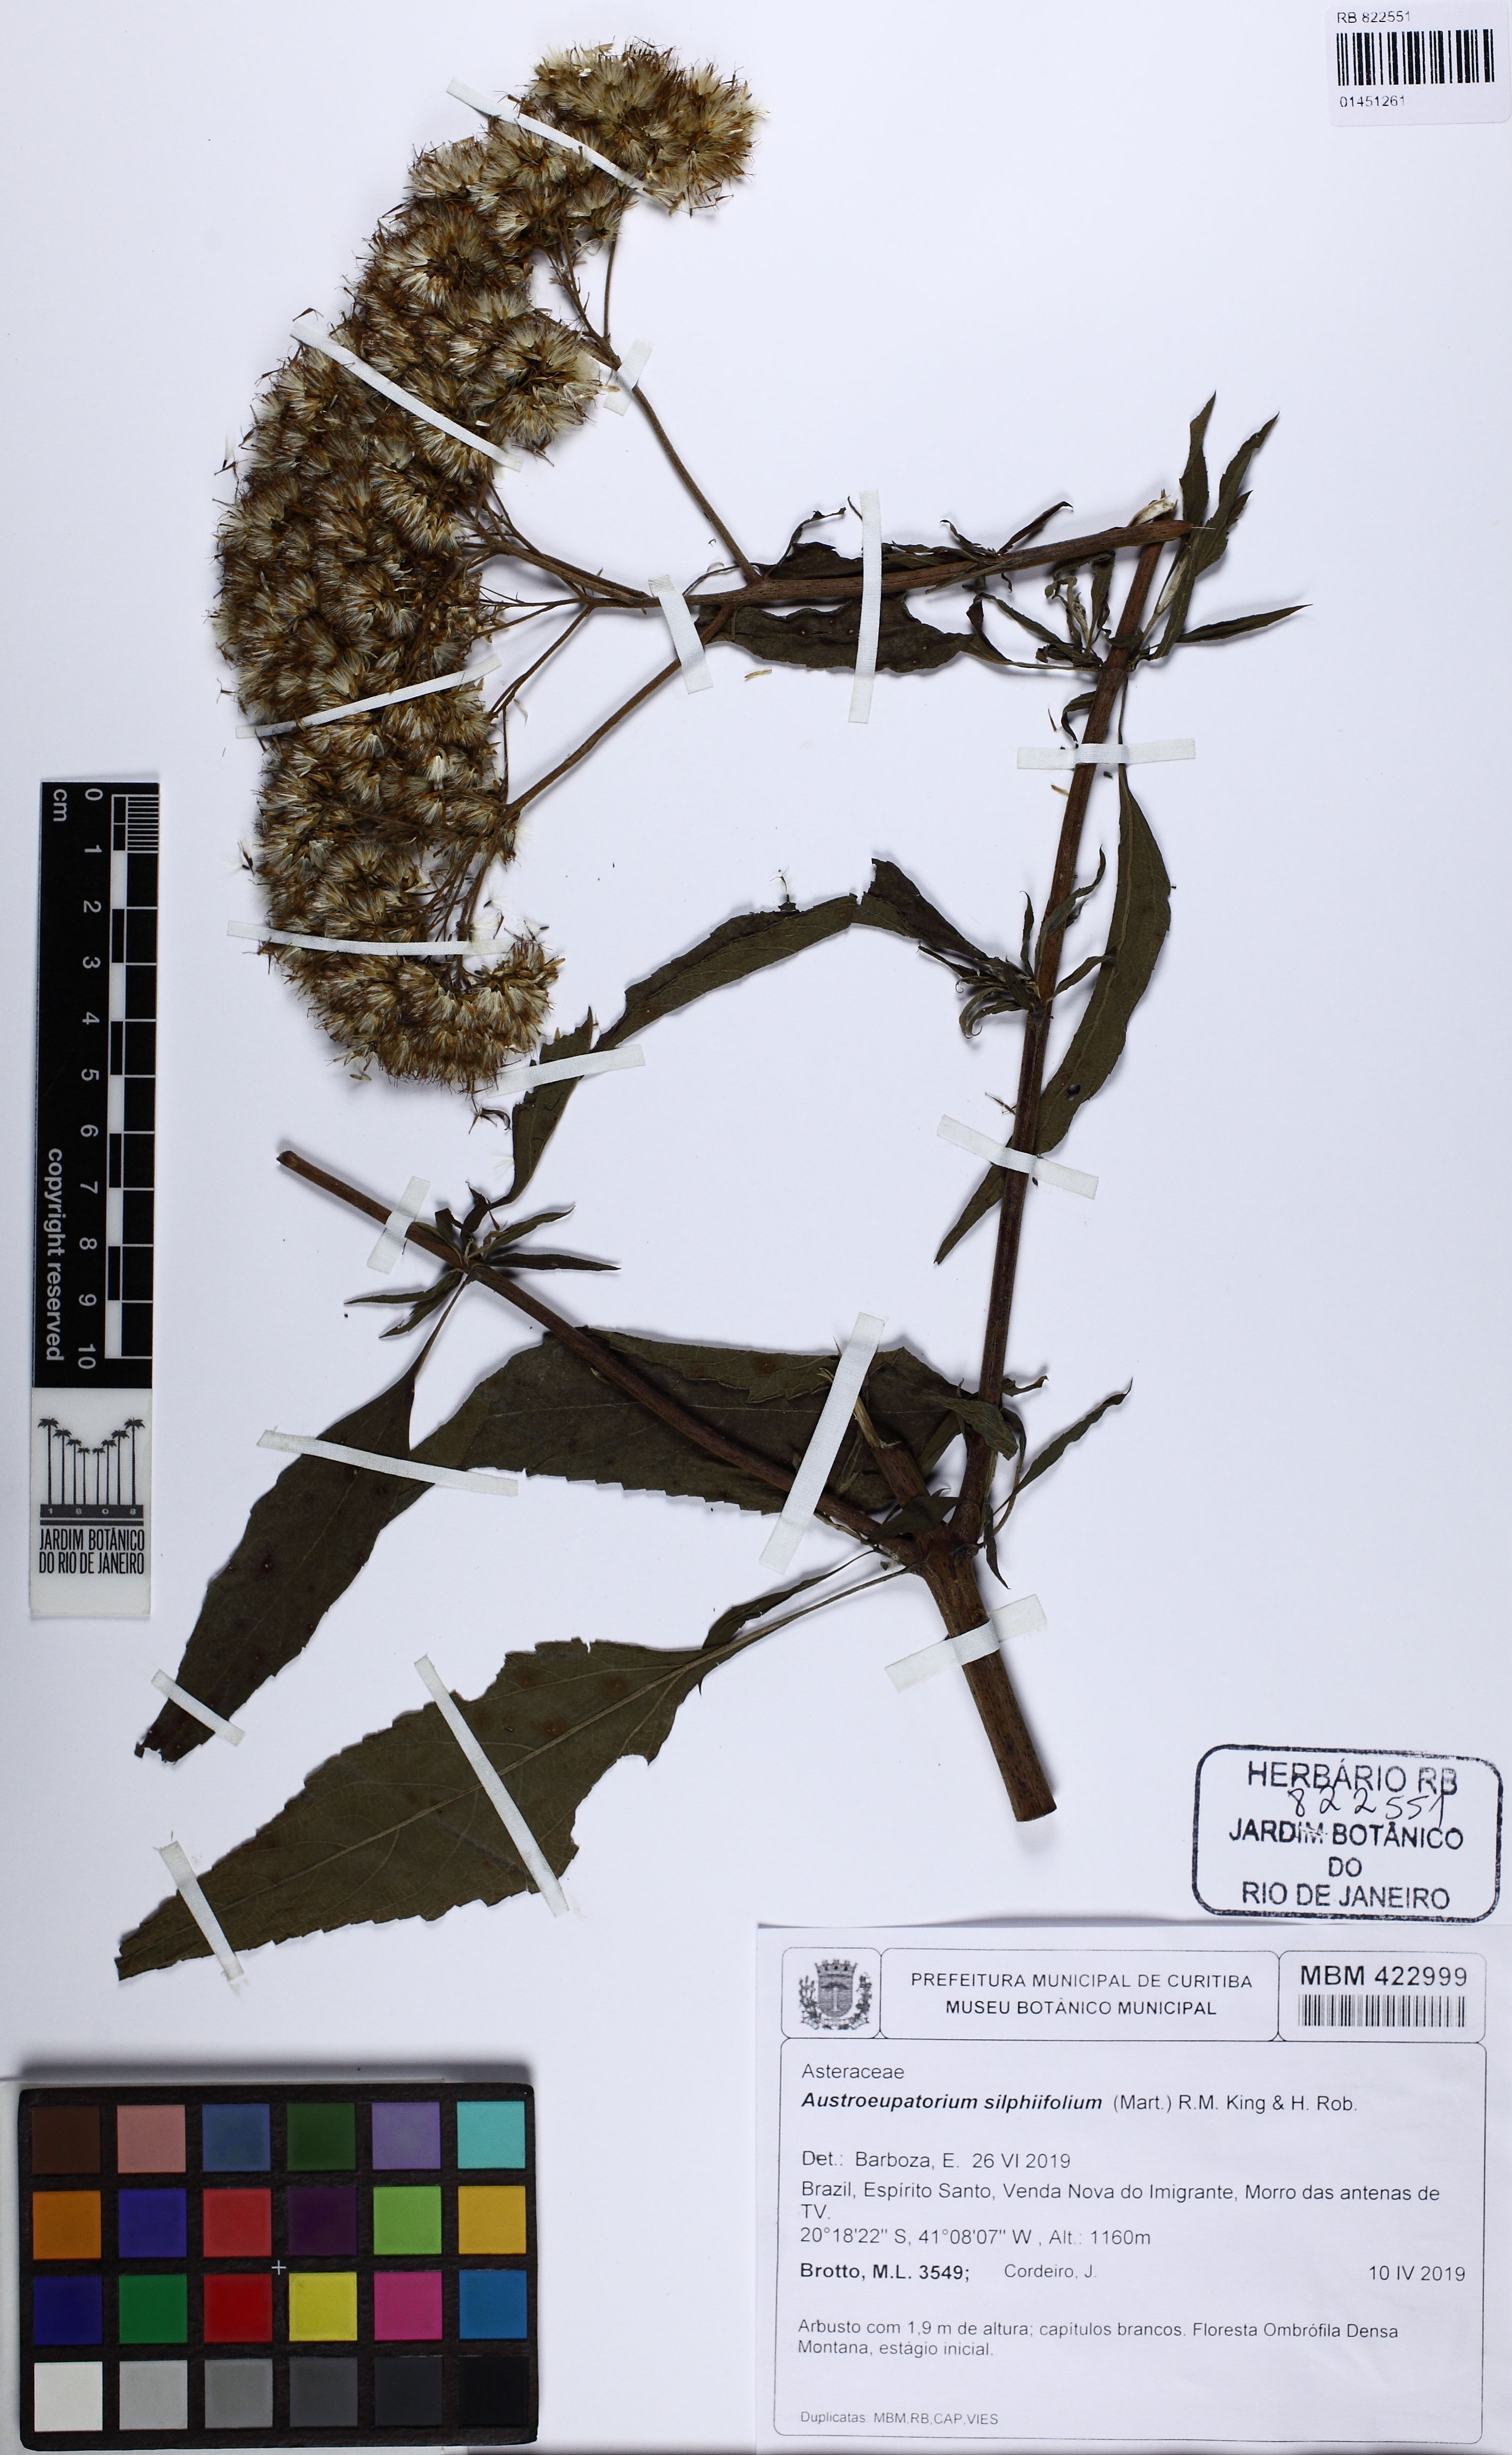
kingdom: Plantae
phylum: Tracheophyta
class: Magnoliopsida
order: Asterales
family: Asteraceae
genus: Austroeupatorium
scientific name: Austroeupatorium silphiifolium
